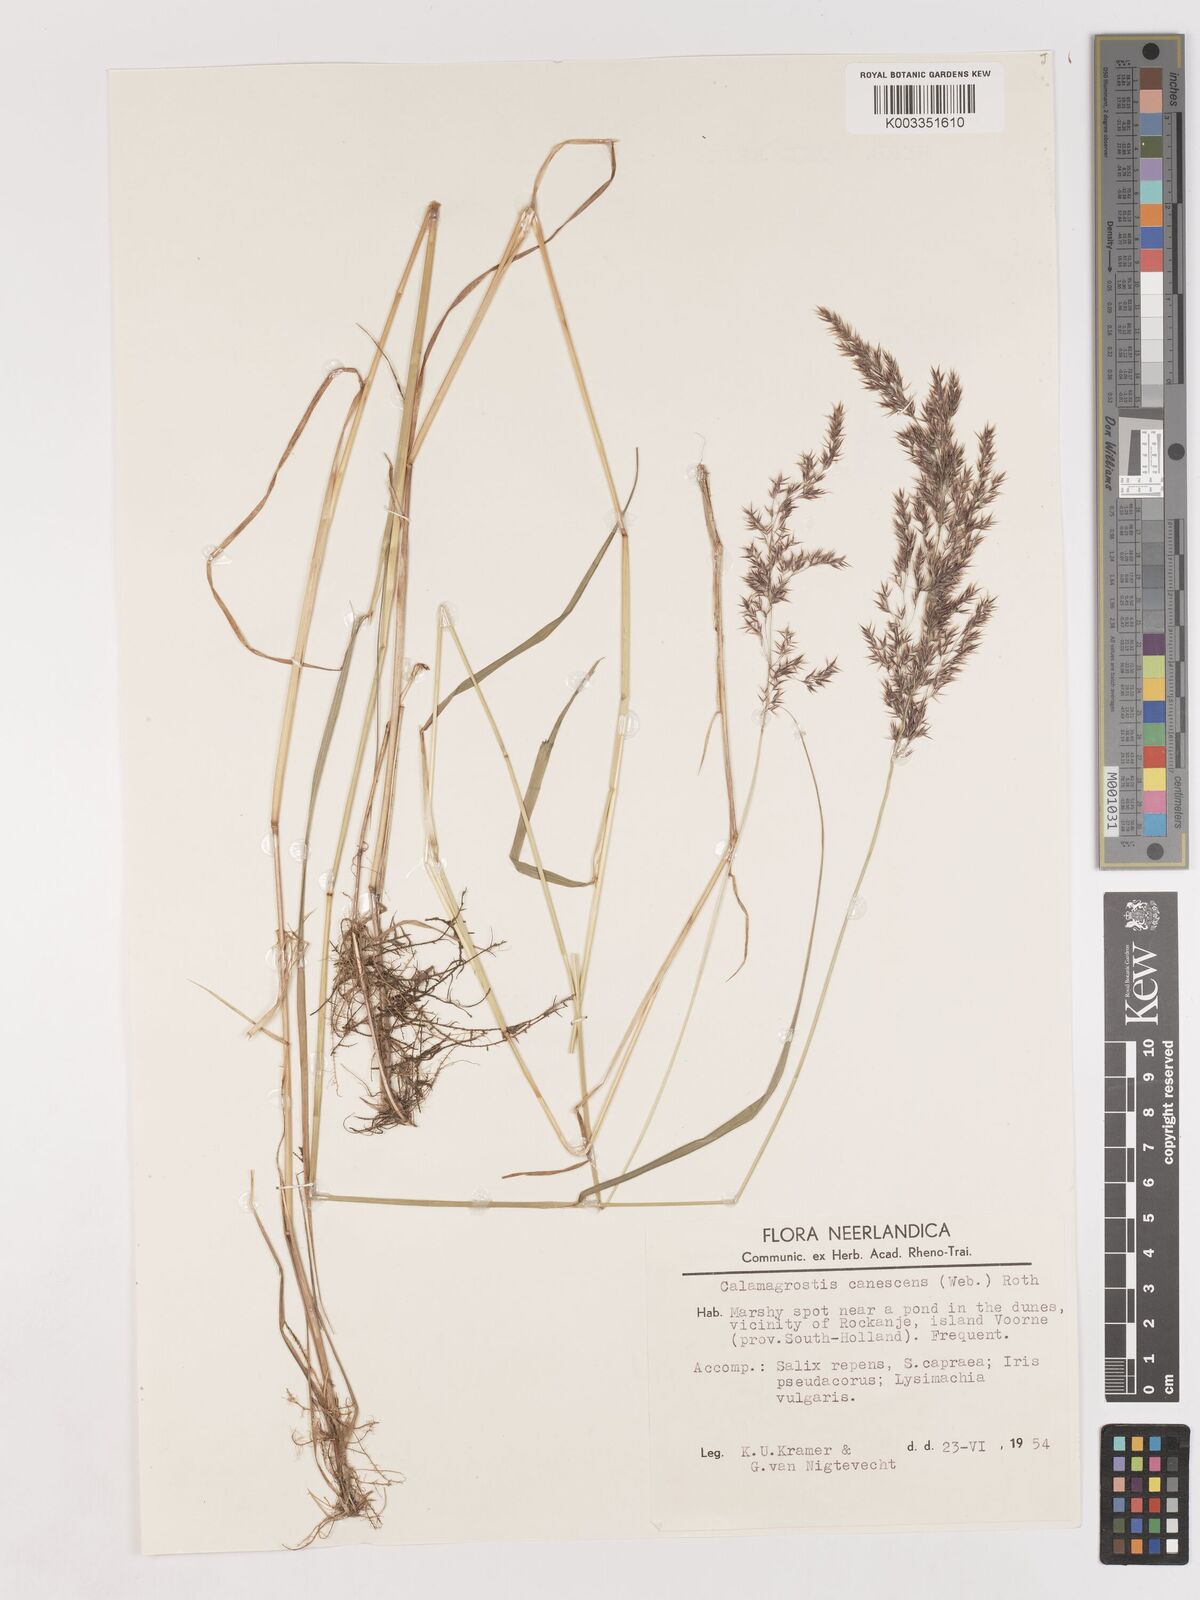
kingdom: Plantae
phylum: Tracheophyta
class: Liliopsida
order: Poales
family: Poaceae
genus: Calamagrostis
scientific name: Calamagrostis canescens
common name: Purple small-reed
